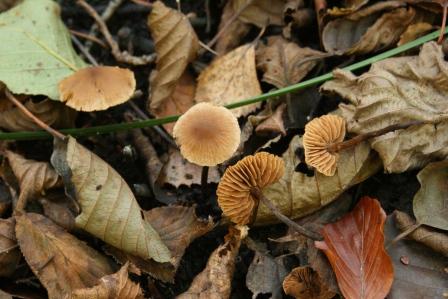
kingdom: Fungi
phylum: Basidiomycota
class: Agaricomycetes
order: Agaricales
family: Hymenogastraceae
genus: Naucoria
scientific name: Naucoria scolecina
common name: mørk elle-knaphat
